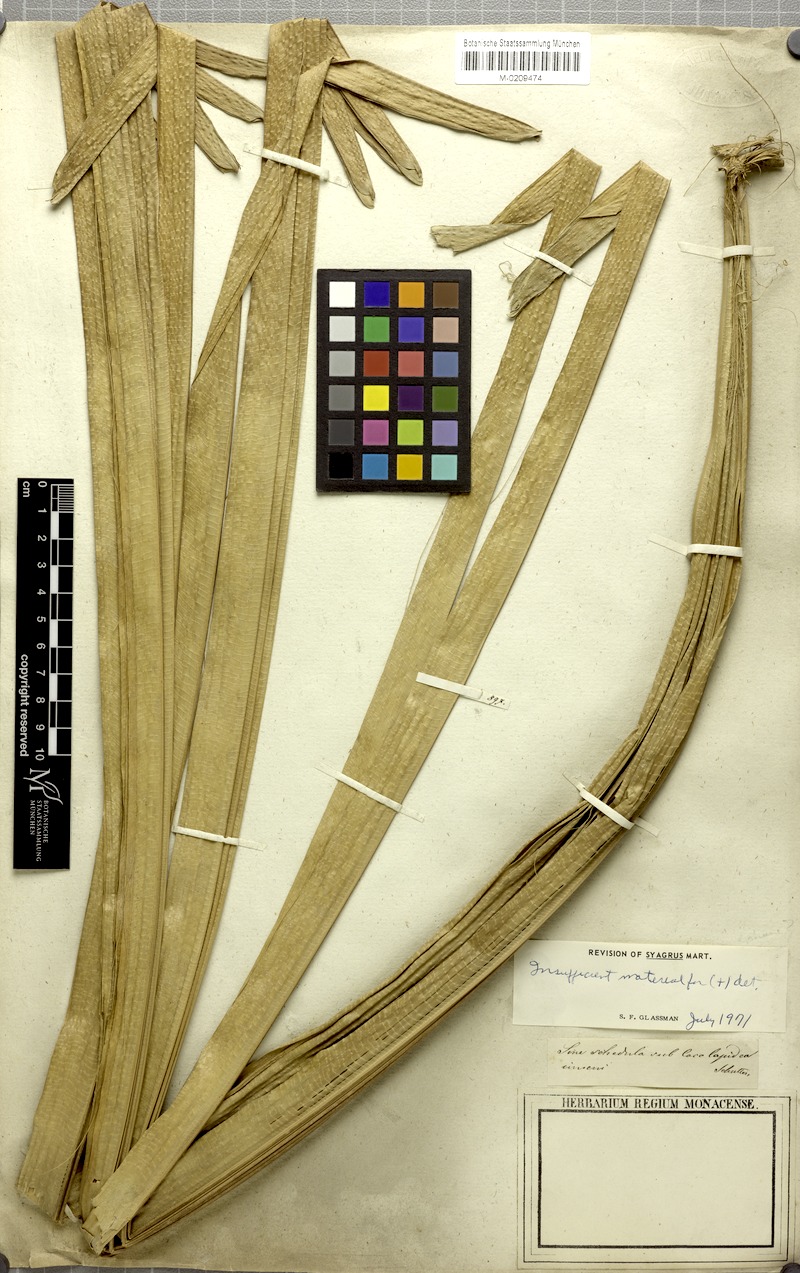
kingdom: Plantae
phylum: Tracheophyta
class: Liliopsida
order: Arecales
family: Arecaceae
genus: Syagrus
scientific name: Syagrus
